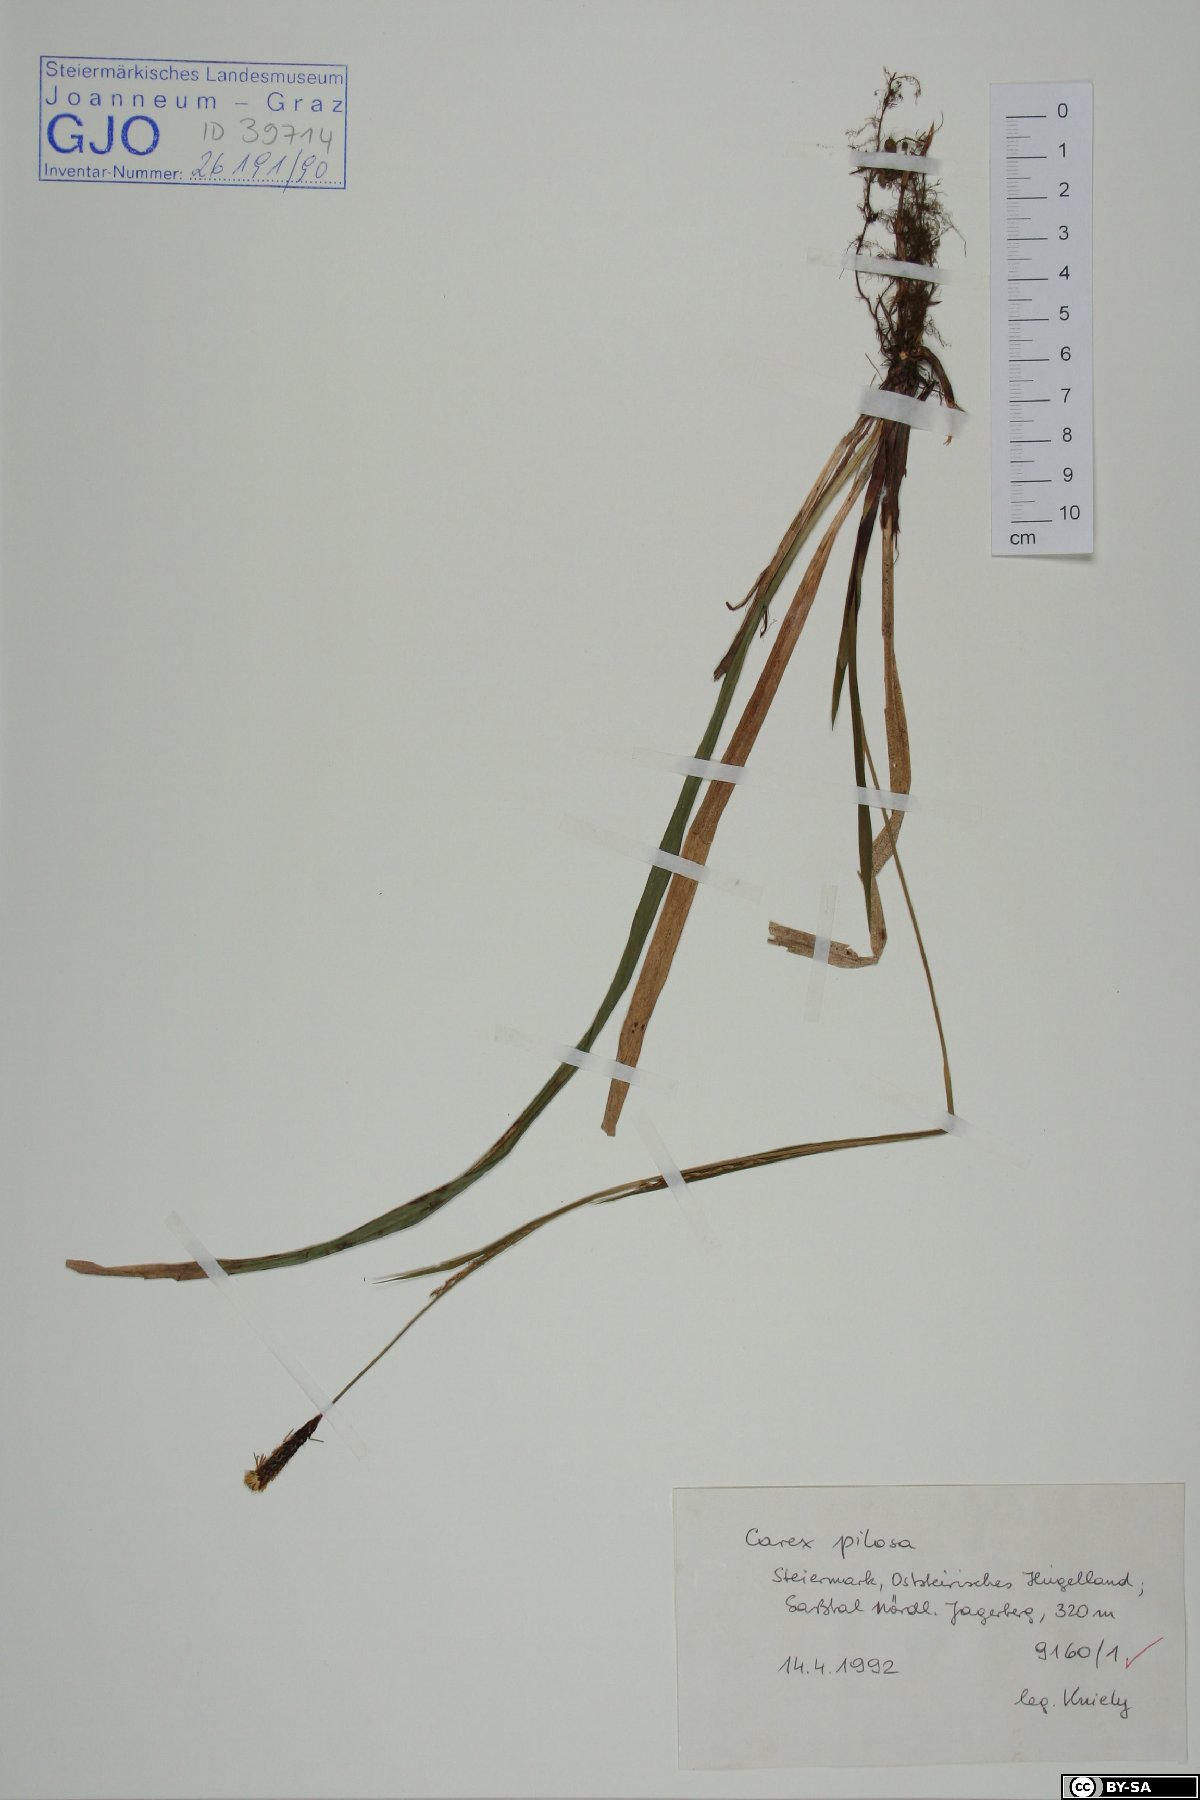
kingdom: Plantae
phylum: Tracheophyta
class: Liliopsida
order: Poales
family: Cyperaceae
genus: Carex
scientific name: Carex pilosa
